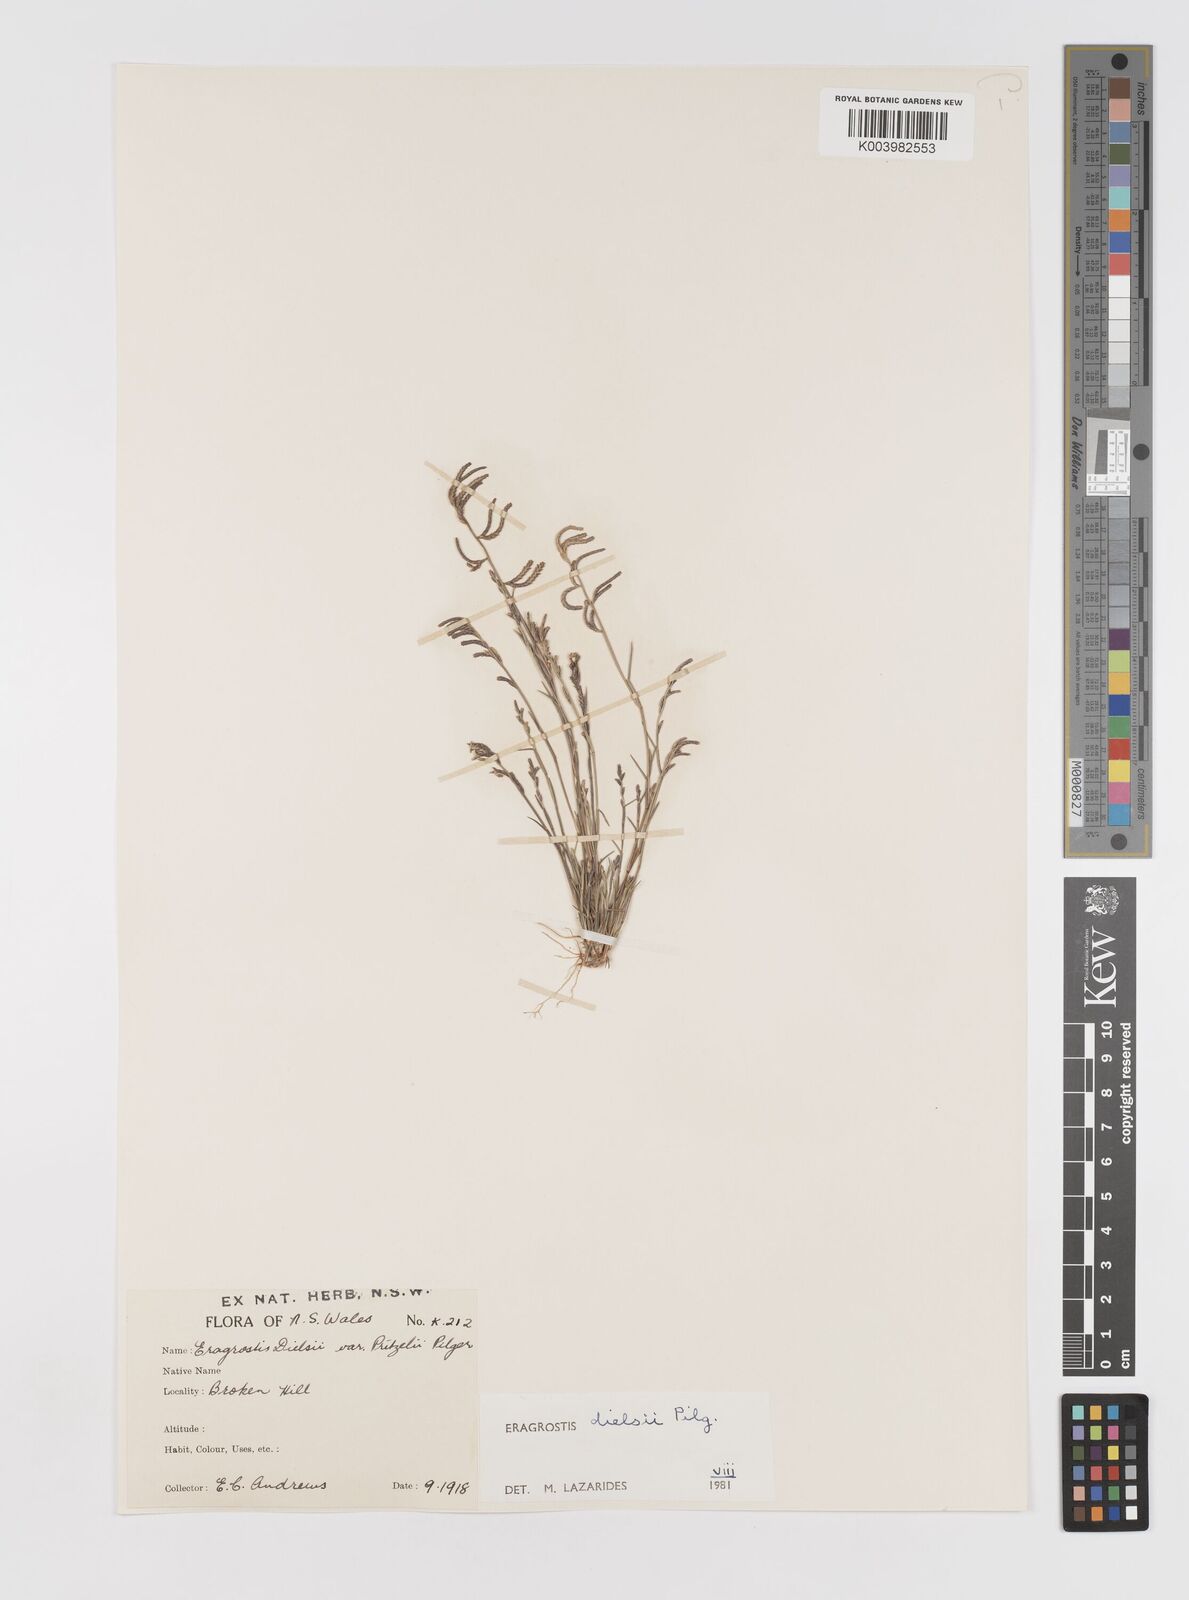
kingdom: Plantae
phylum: Tracheophyta
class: Liliopsida
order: Poales
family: Poaceae
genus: Eragrostis
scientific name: Eragrostis dielsii
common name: Lovegrass
